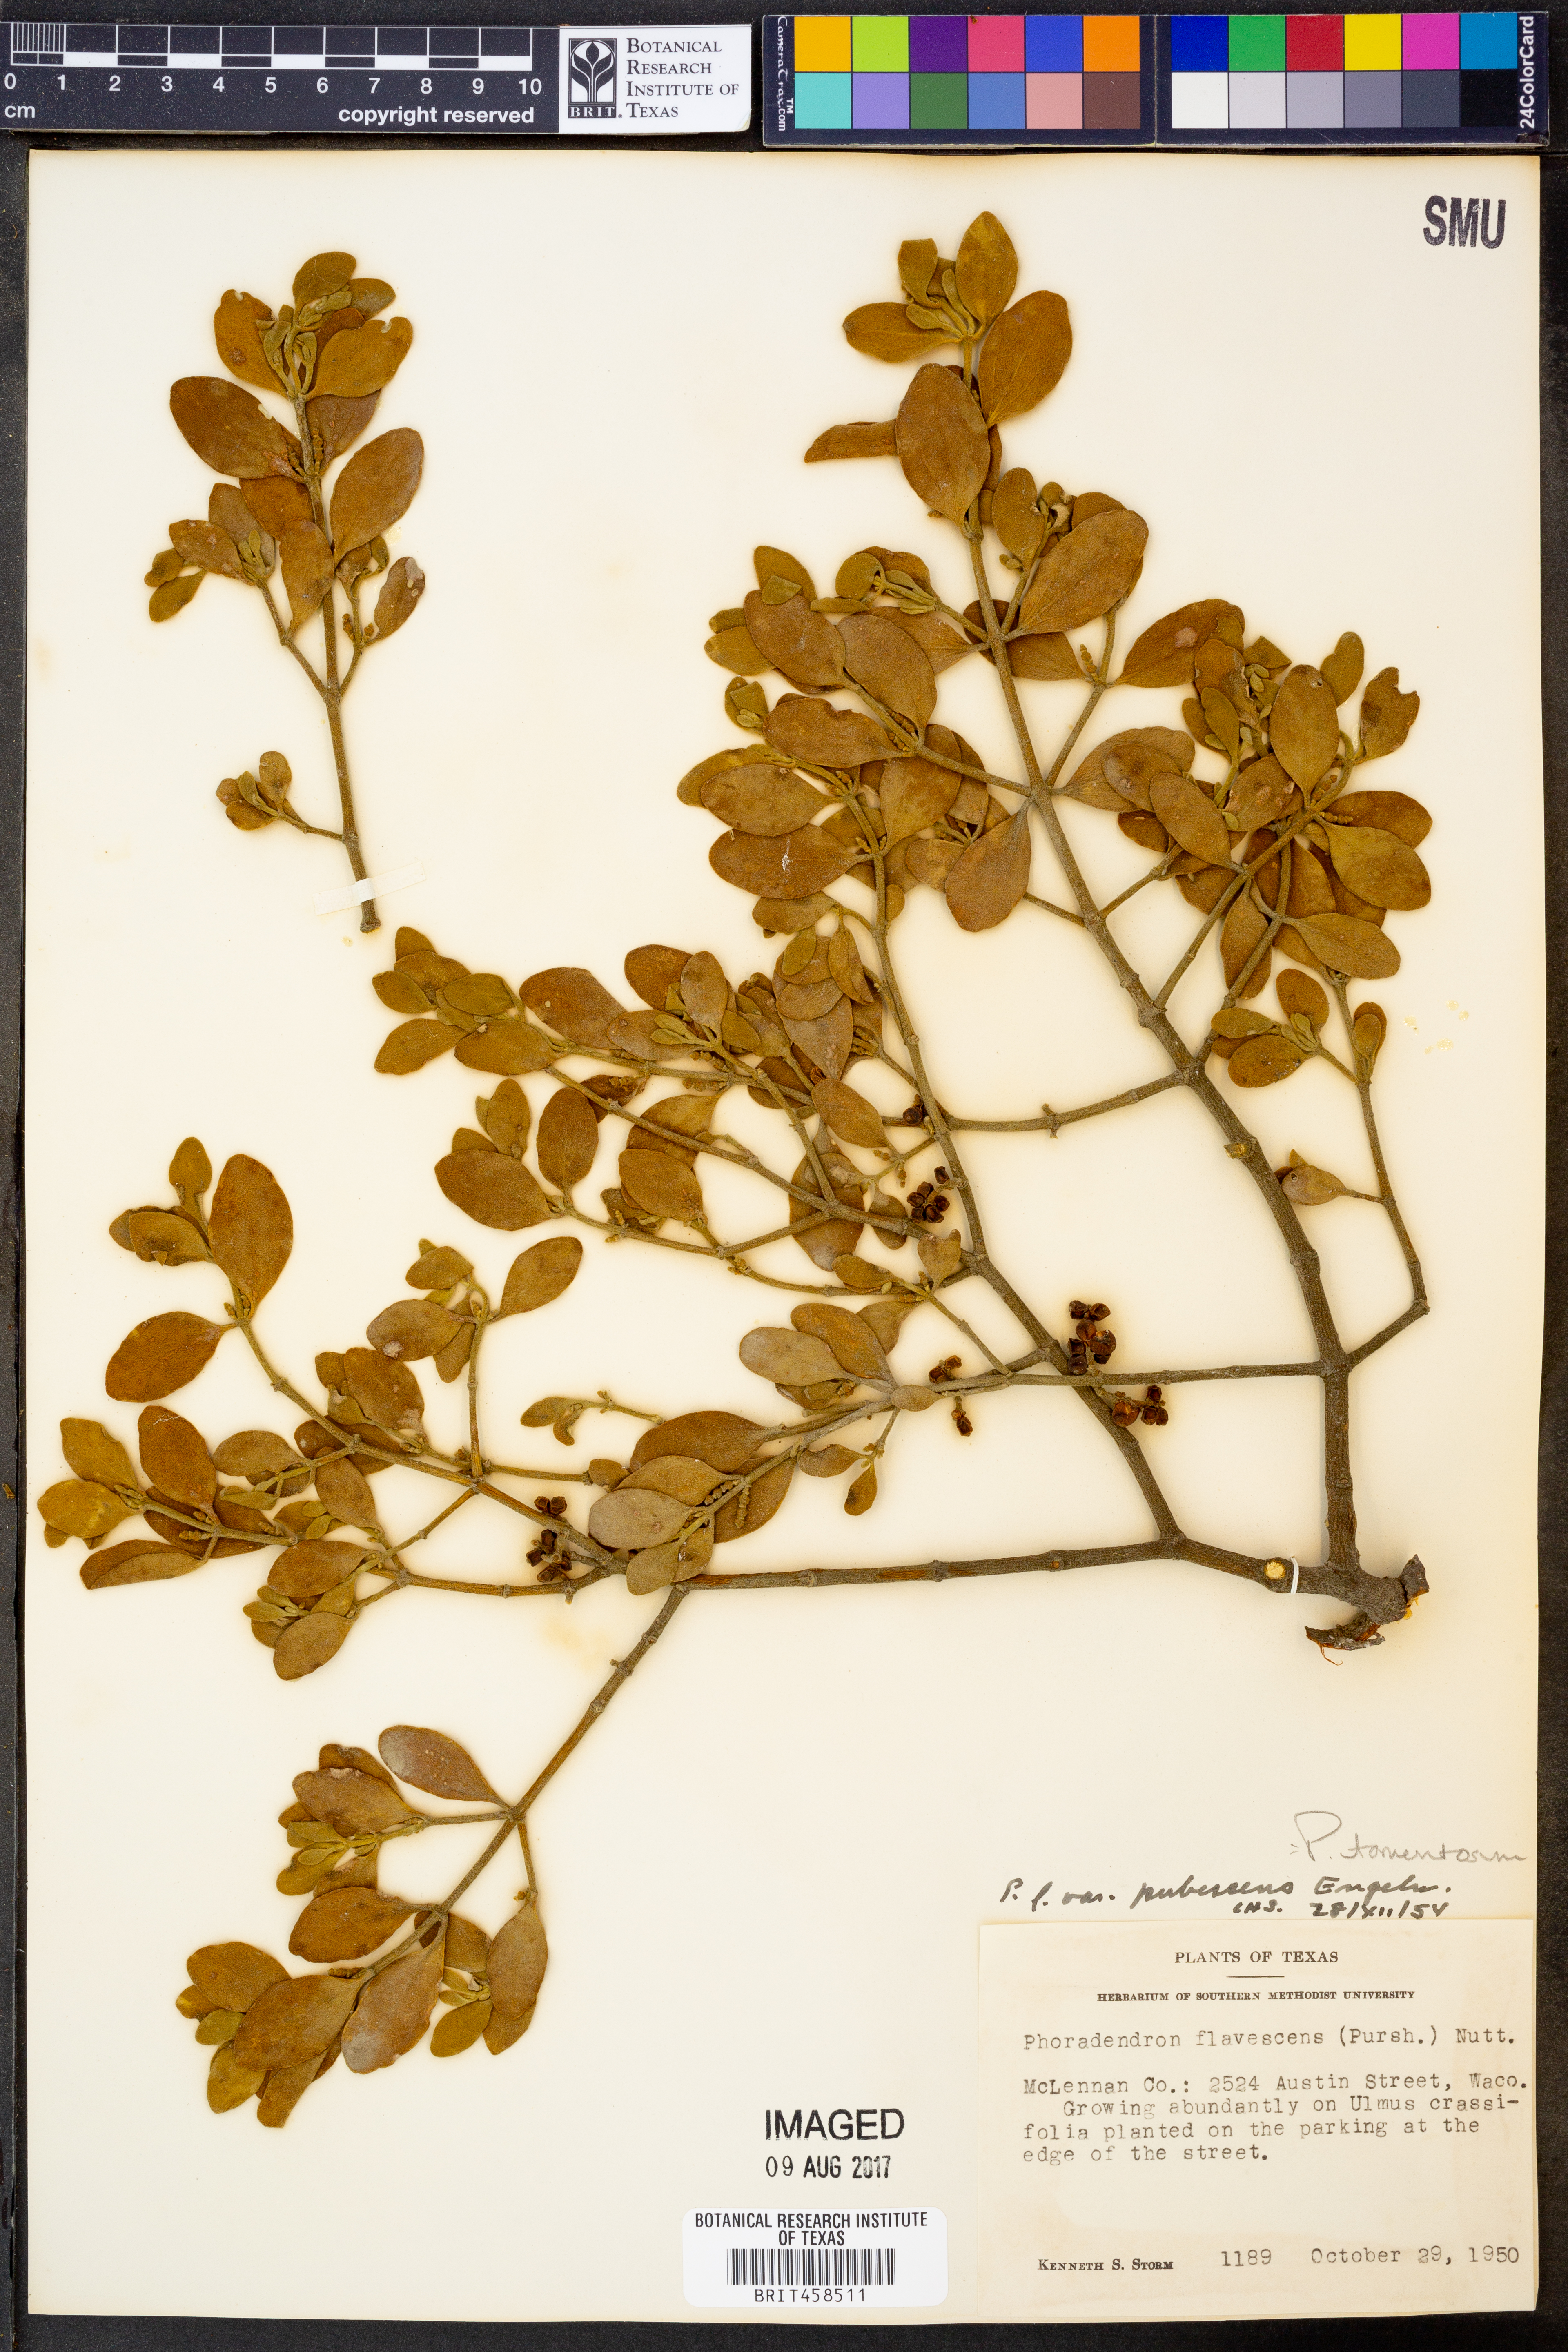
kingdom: Plantae
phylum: Tracheophyta
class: Magnoliopsida
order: Santalales
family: Viscaceae
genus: Phoradendron
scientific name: Phoradendron leucarpum
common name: Pacific mistletoe
